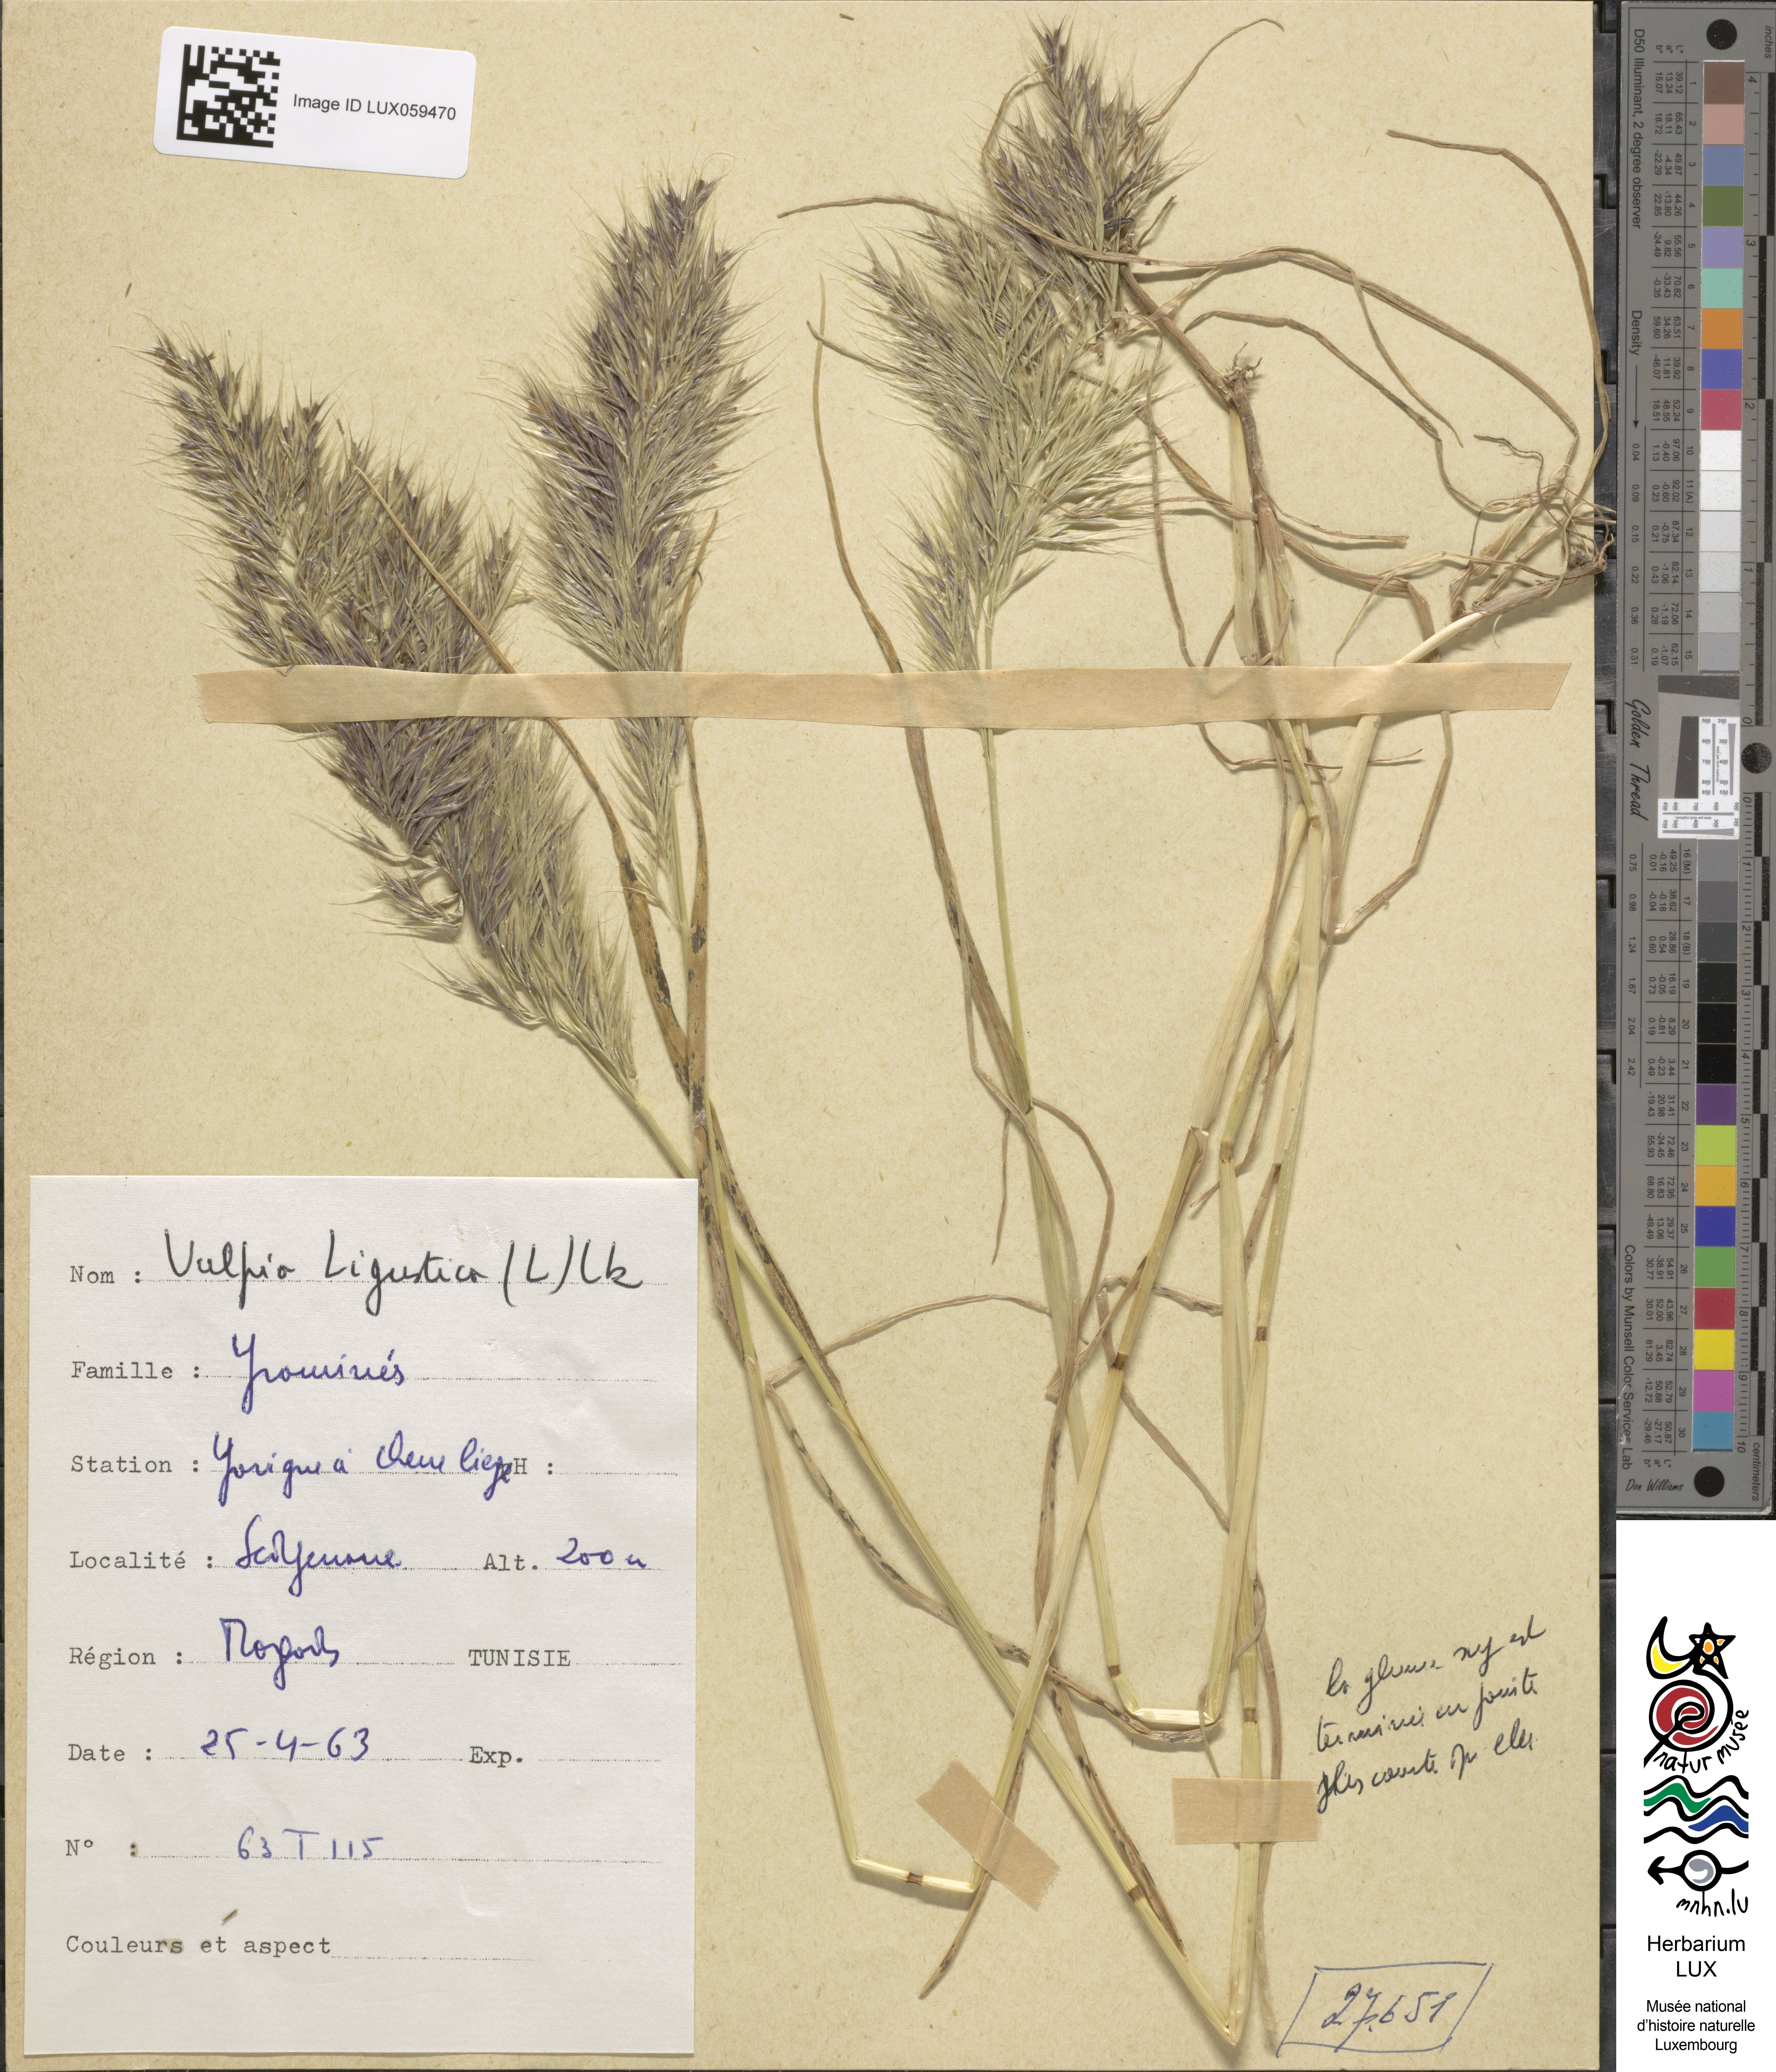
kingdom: Plantae
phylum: Tracheophyta
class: Liliopsida
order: Poales
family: Poaceae
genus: Festuca
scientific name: Festuca ligustica
